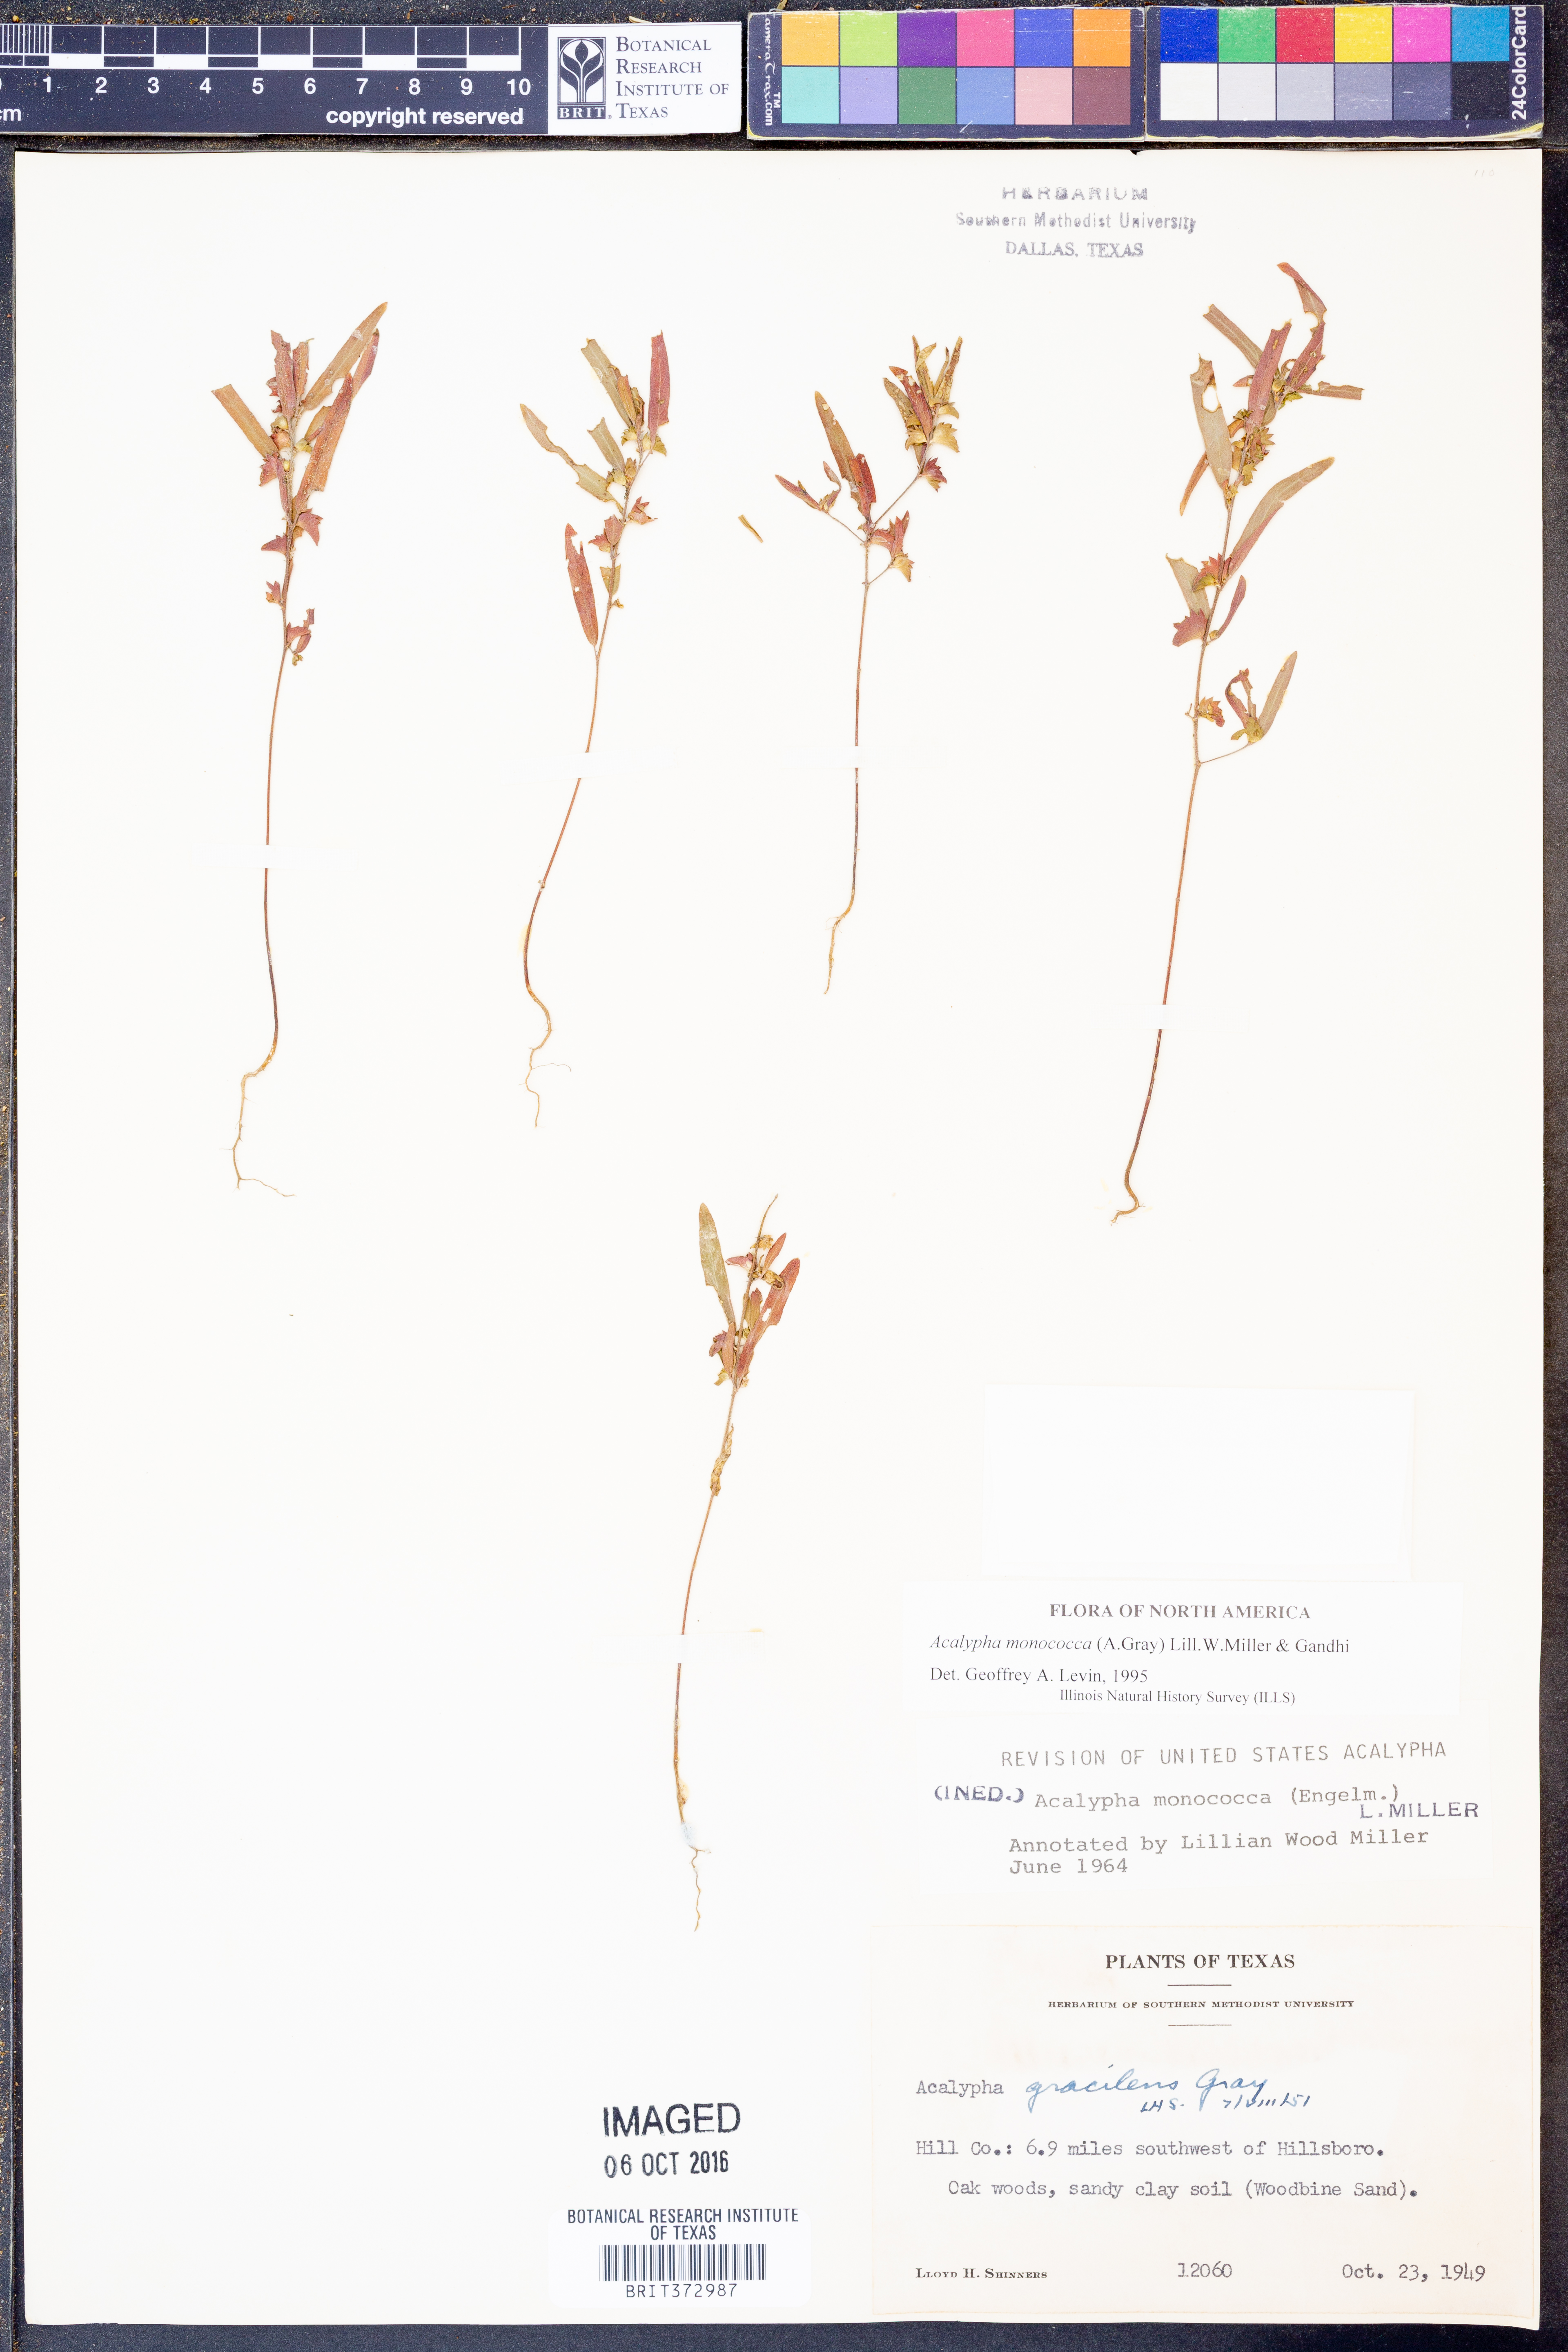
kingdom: Plantae
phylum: Tracheophyta
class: Magnoliopsida
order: Malpighiales
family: Euphorbiaceae
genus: Acalypha
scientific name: Acalypha monococca
